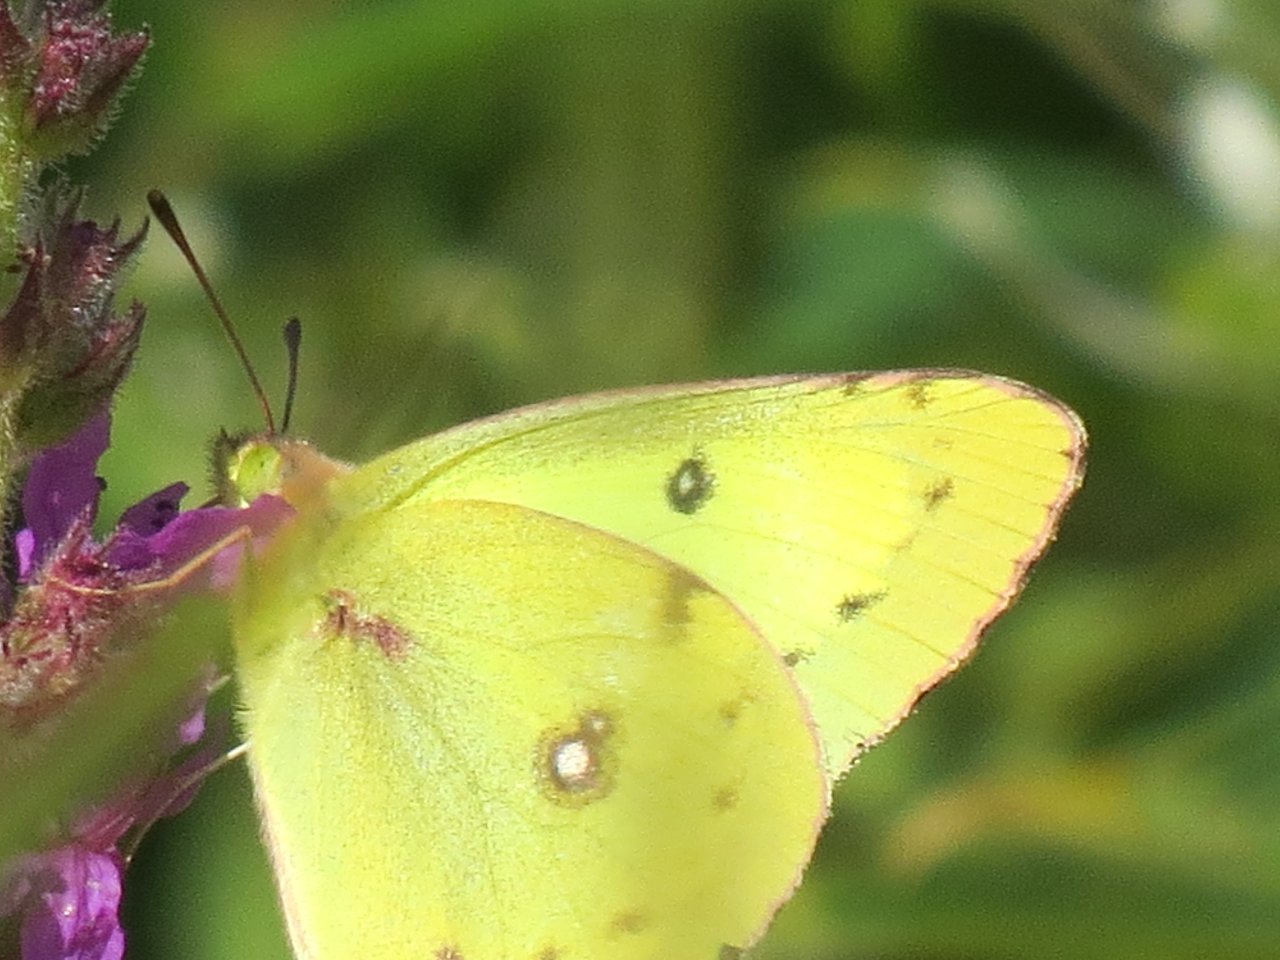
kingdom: Animalia
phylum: Arthropoda
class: Insecta
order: Lepidoptera
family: Pieridae
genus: Colias
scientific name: Colias philodice
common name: Clouded Sulphur
